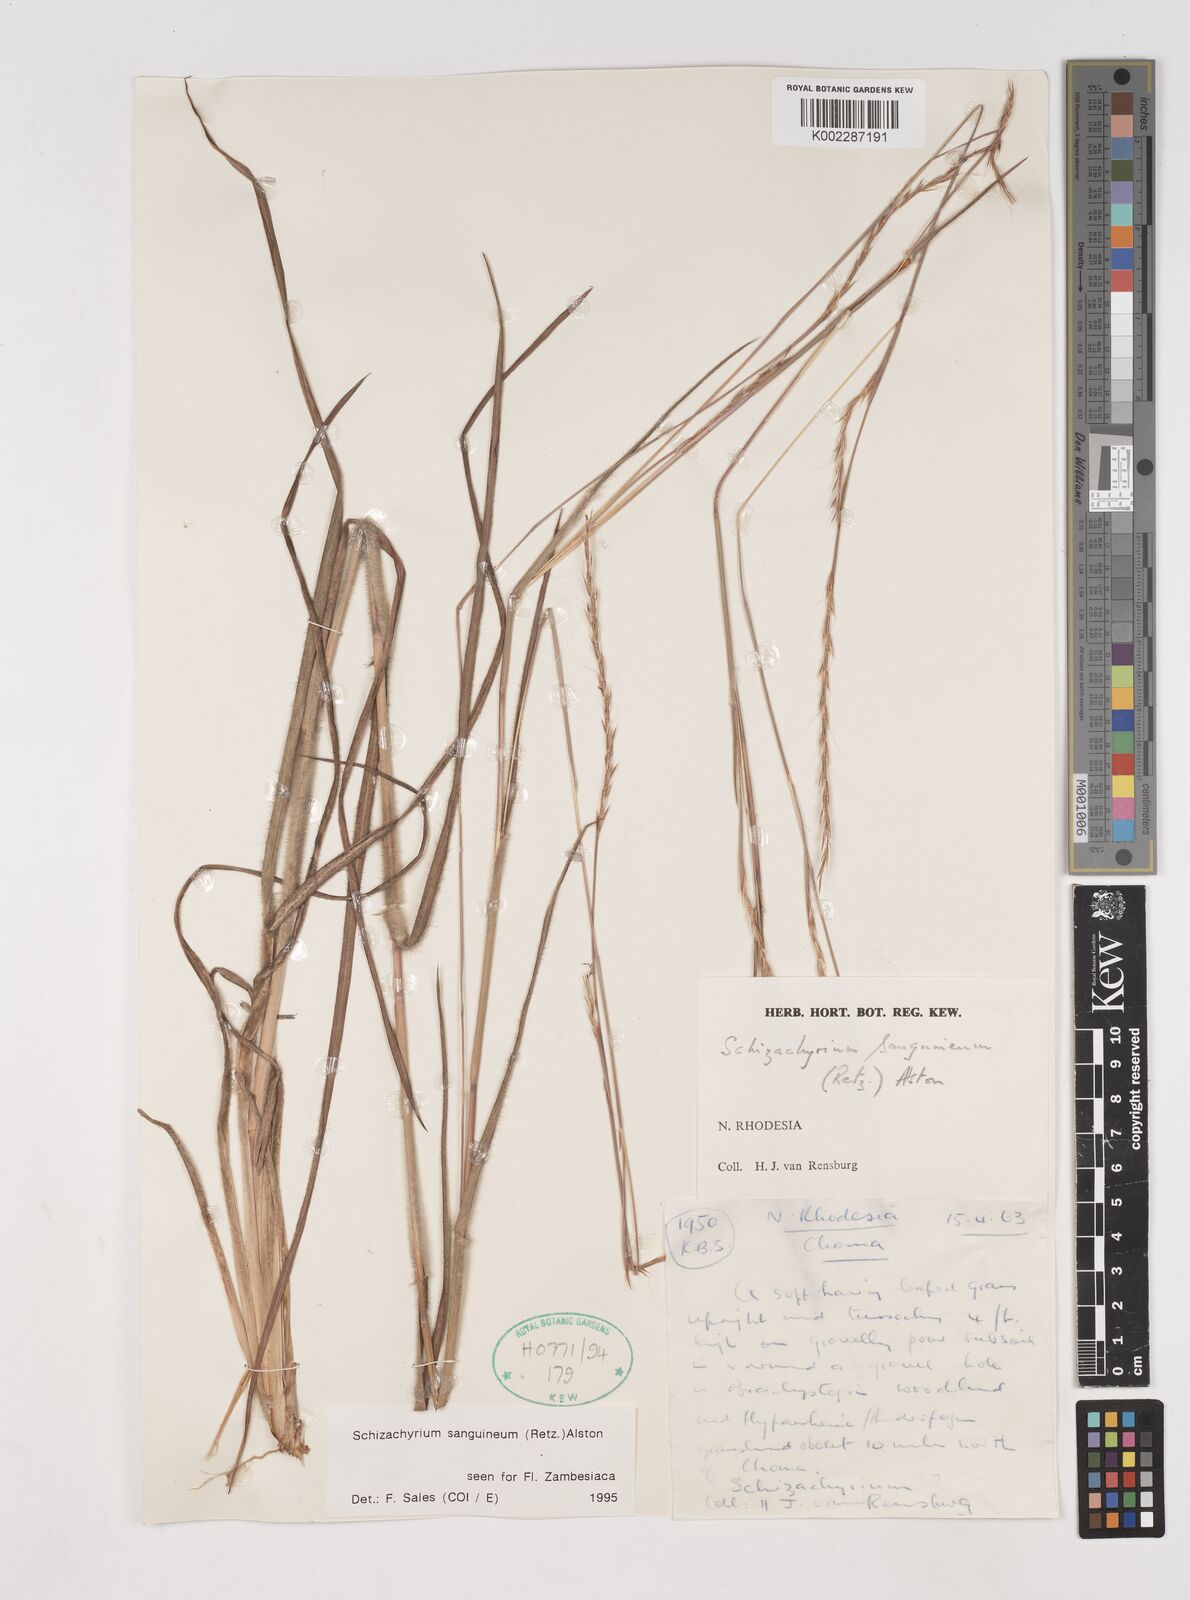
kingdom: Plantae
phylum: Tracheophyta
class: Liliopsida
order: Poales
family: Poaceae
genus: Schizachyrium
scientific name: Schizachyrium sanguineum
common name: Crimson bluestem
